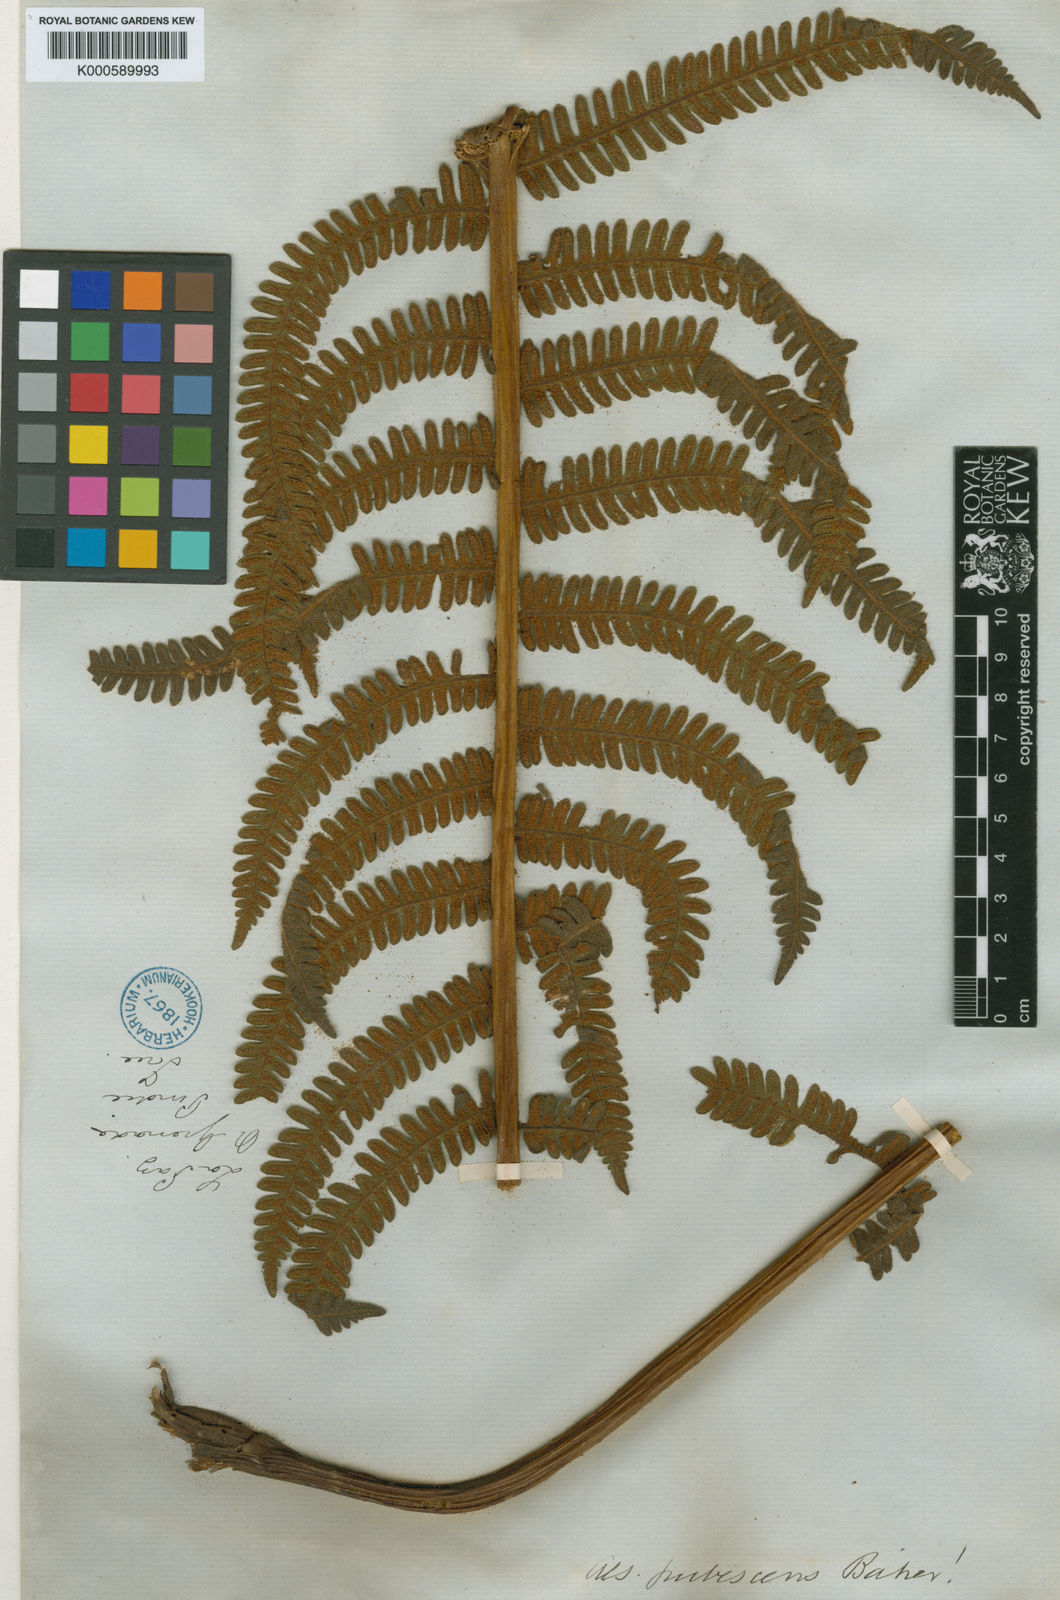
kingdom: Plantae
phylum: Tracheophyta
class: Polypodiopsida
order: Cyatheales
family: Cyatheaceae
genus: Alsophila
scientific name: Alsophila auneae
